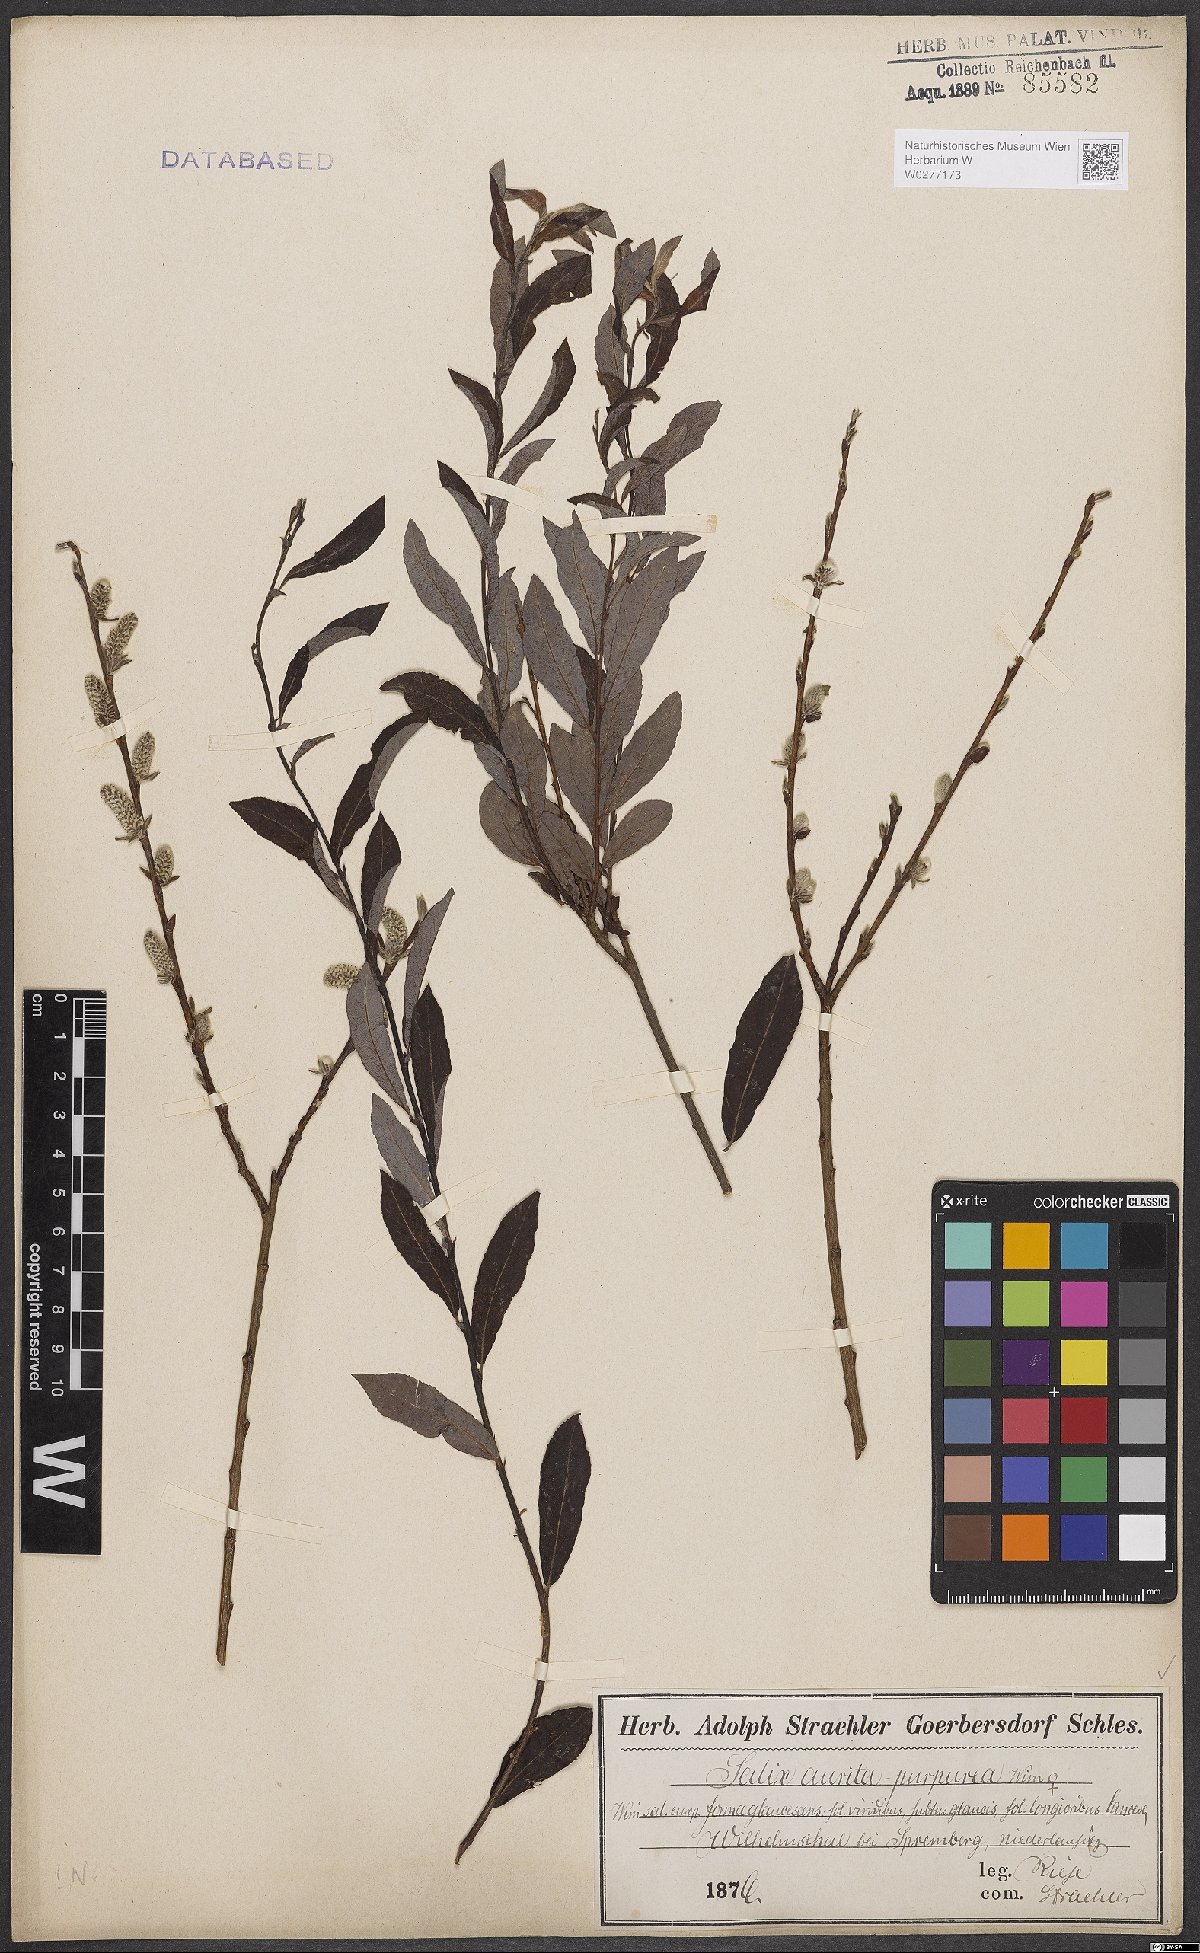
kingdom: Plantae
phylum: Tracheophyta
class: Magnoliopsida
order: Malpighiales
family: Salicaceae
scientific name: Salicaceae
